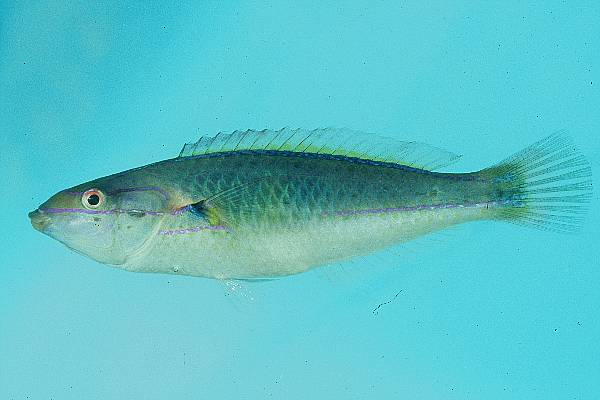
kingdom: Animalia
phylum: Chordata
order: Perciformes
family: Labridae
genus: Stethojulis
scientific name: Stethojulis interrupta
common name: Cutribbon wrasse
